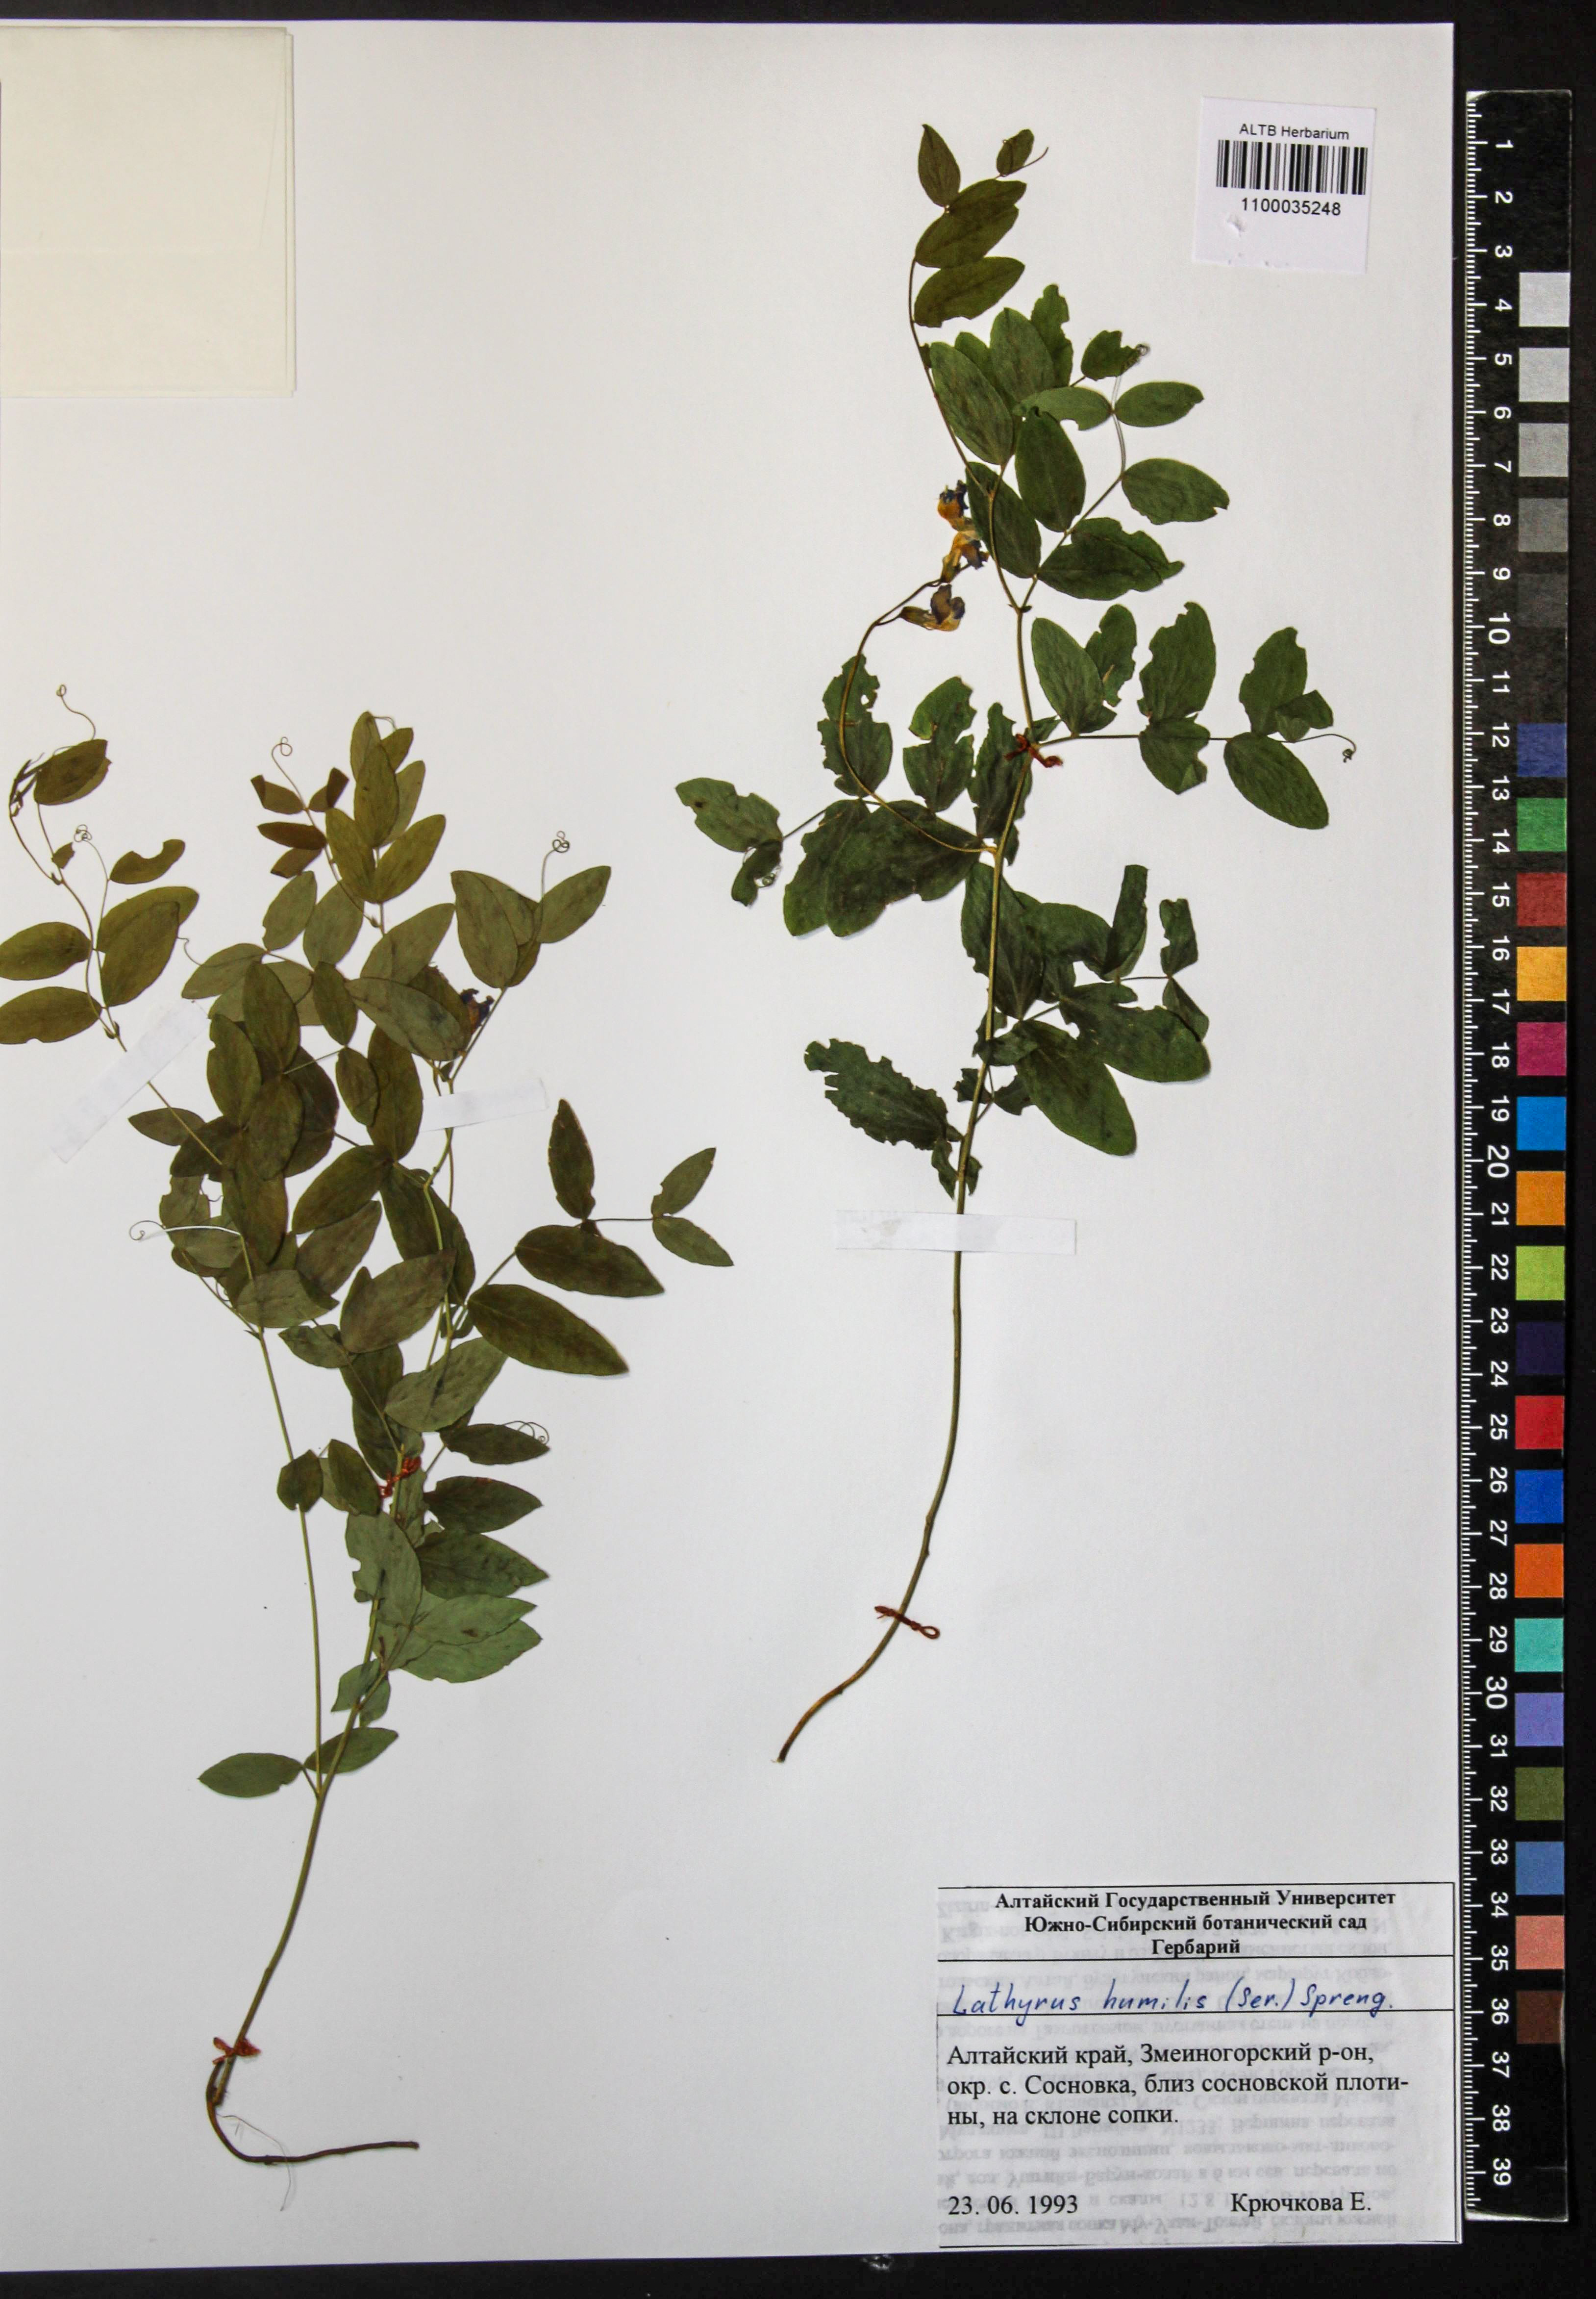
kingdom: Plantae
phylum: Tracheophyta
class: Magnoliopsida
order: Fabales
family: Fabaceae
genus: Lathyrus
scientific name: Lathyrus humilis
